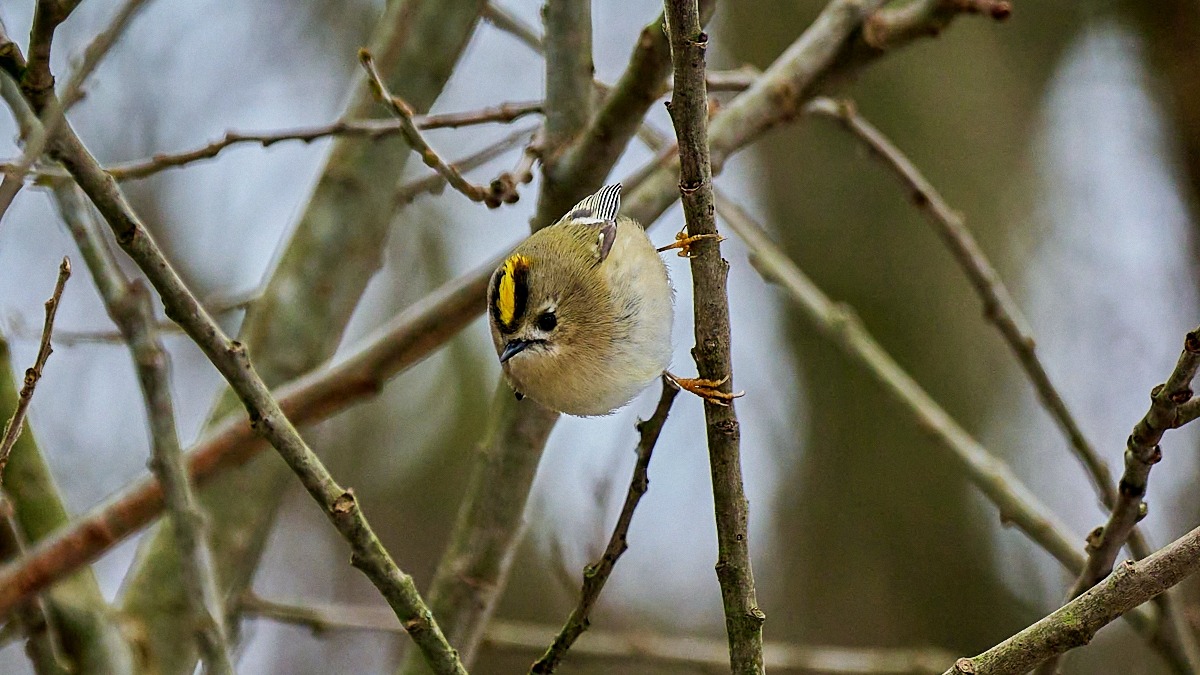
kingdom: Animalia
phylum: Chordata
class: Aves
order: Passeriformes
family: Regulidae
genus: Regulus
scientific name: Regulus regulus
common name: Fuglekonge
